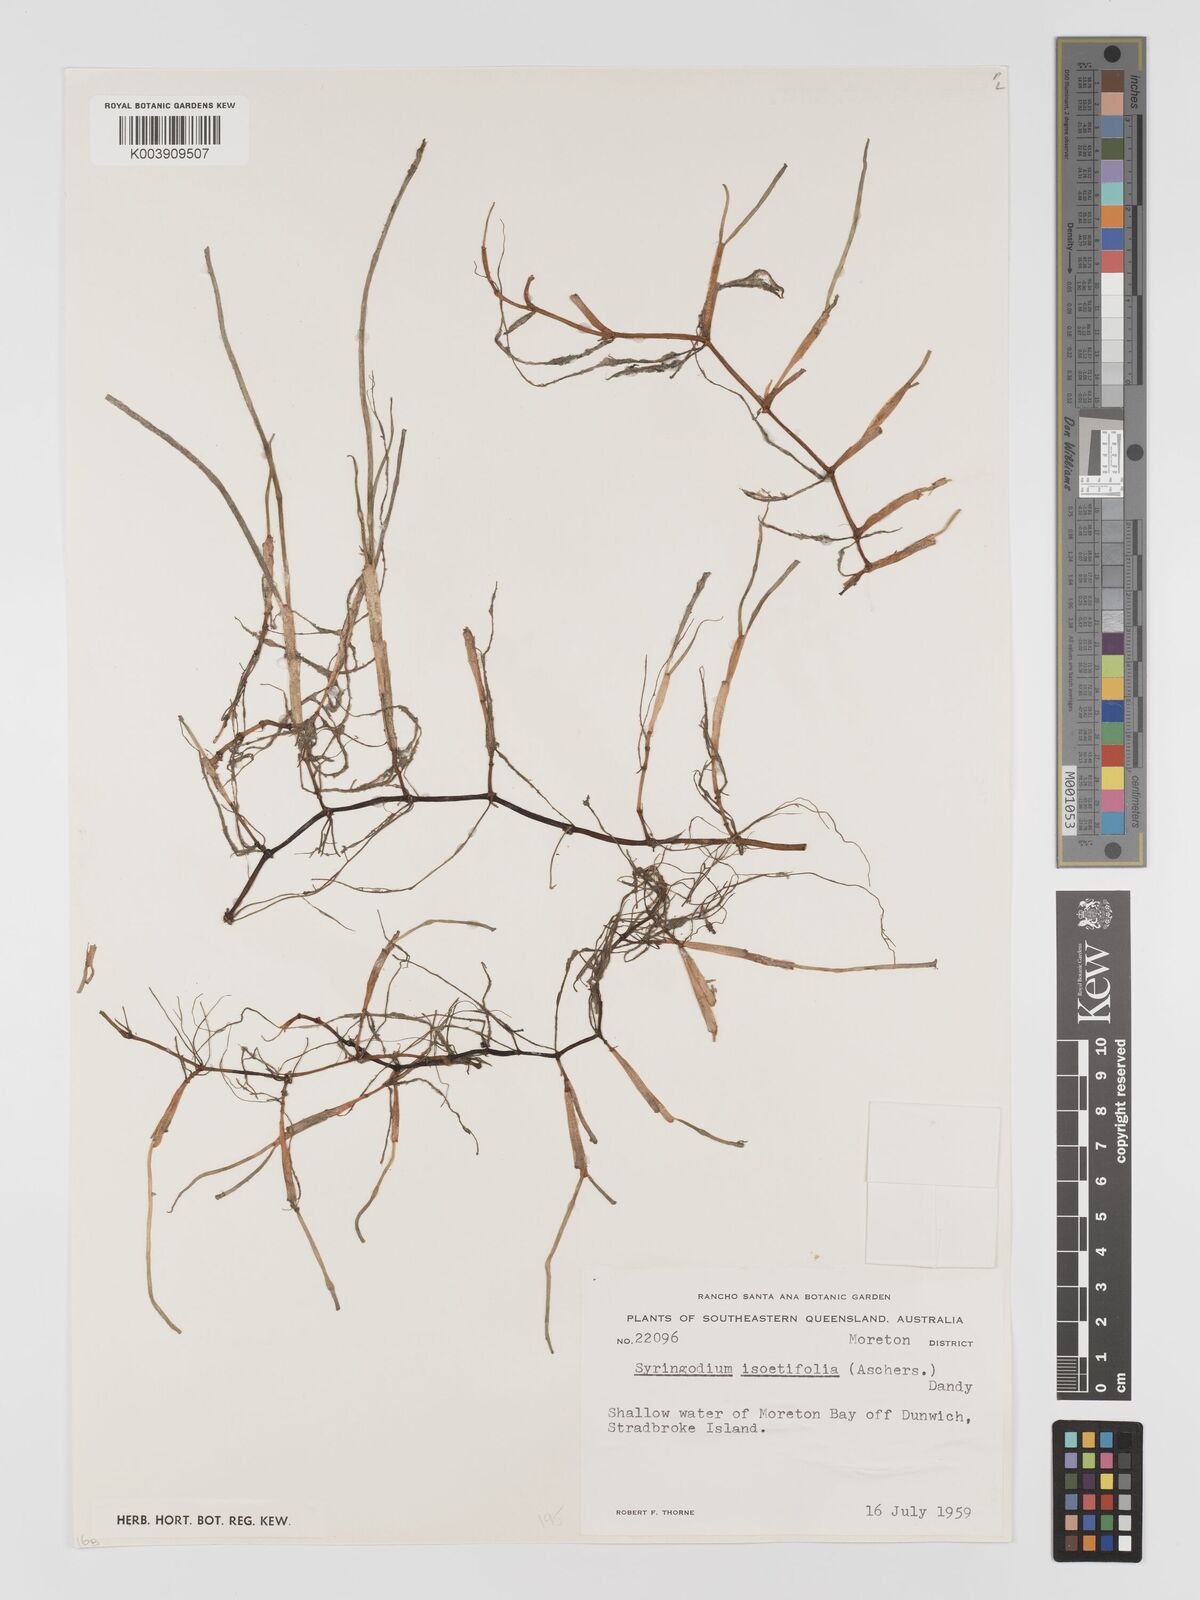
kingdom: Plantae
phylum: Tracheophyta
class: Liliopsida
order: Alismatales
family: Cymodoceaceae
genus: Syringodium
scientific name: Syringodium isoetifolium
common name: Species code: si
